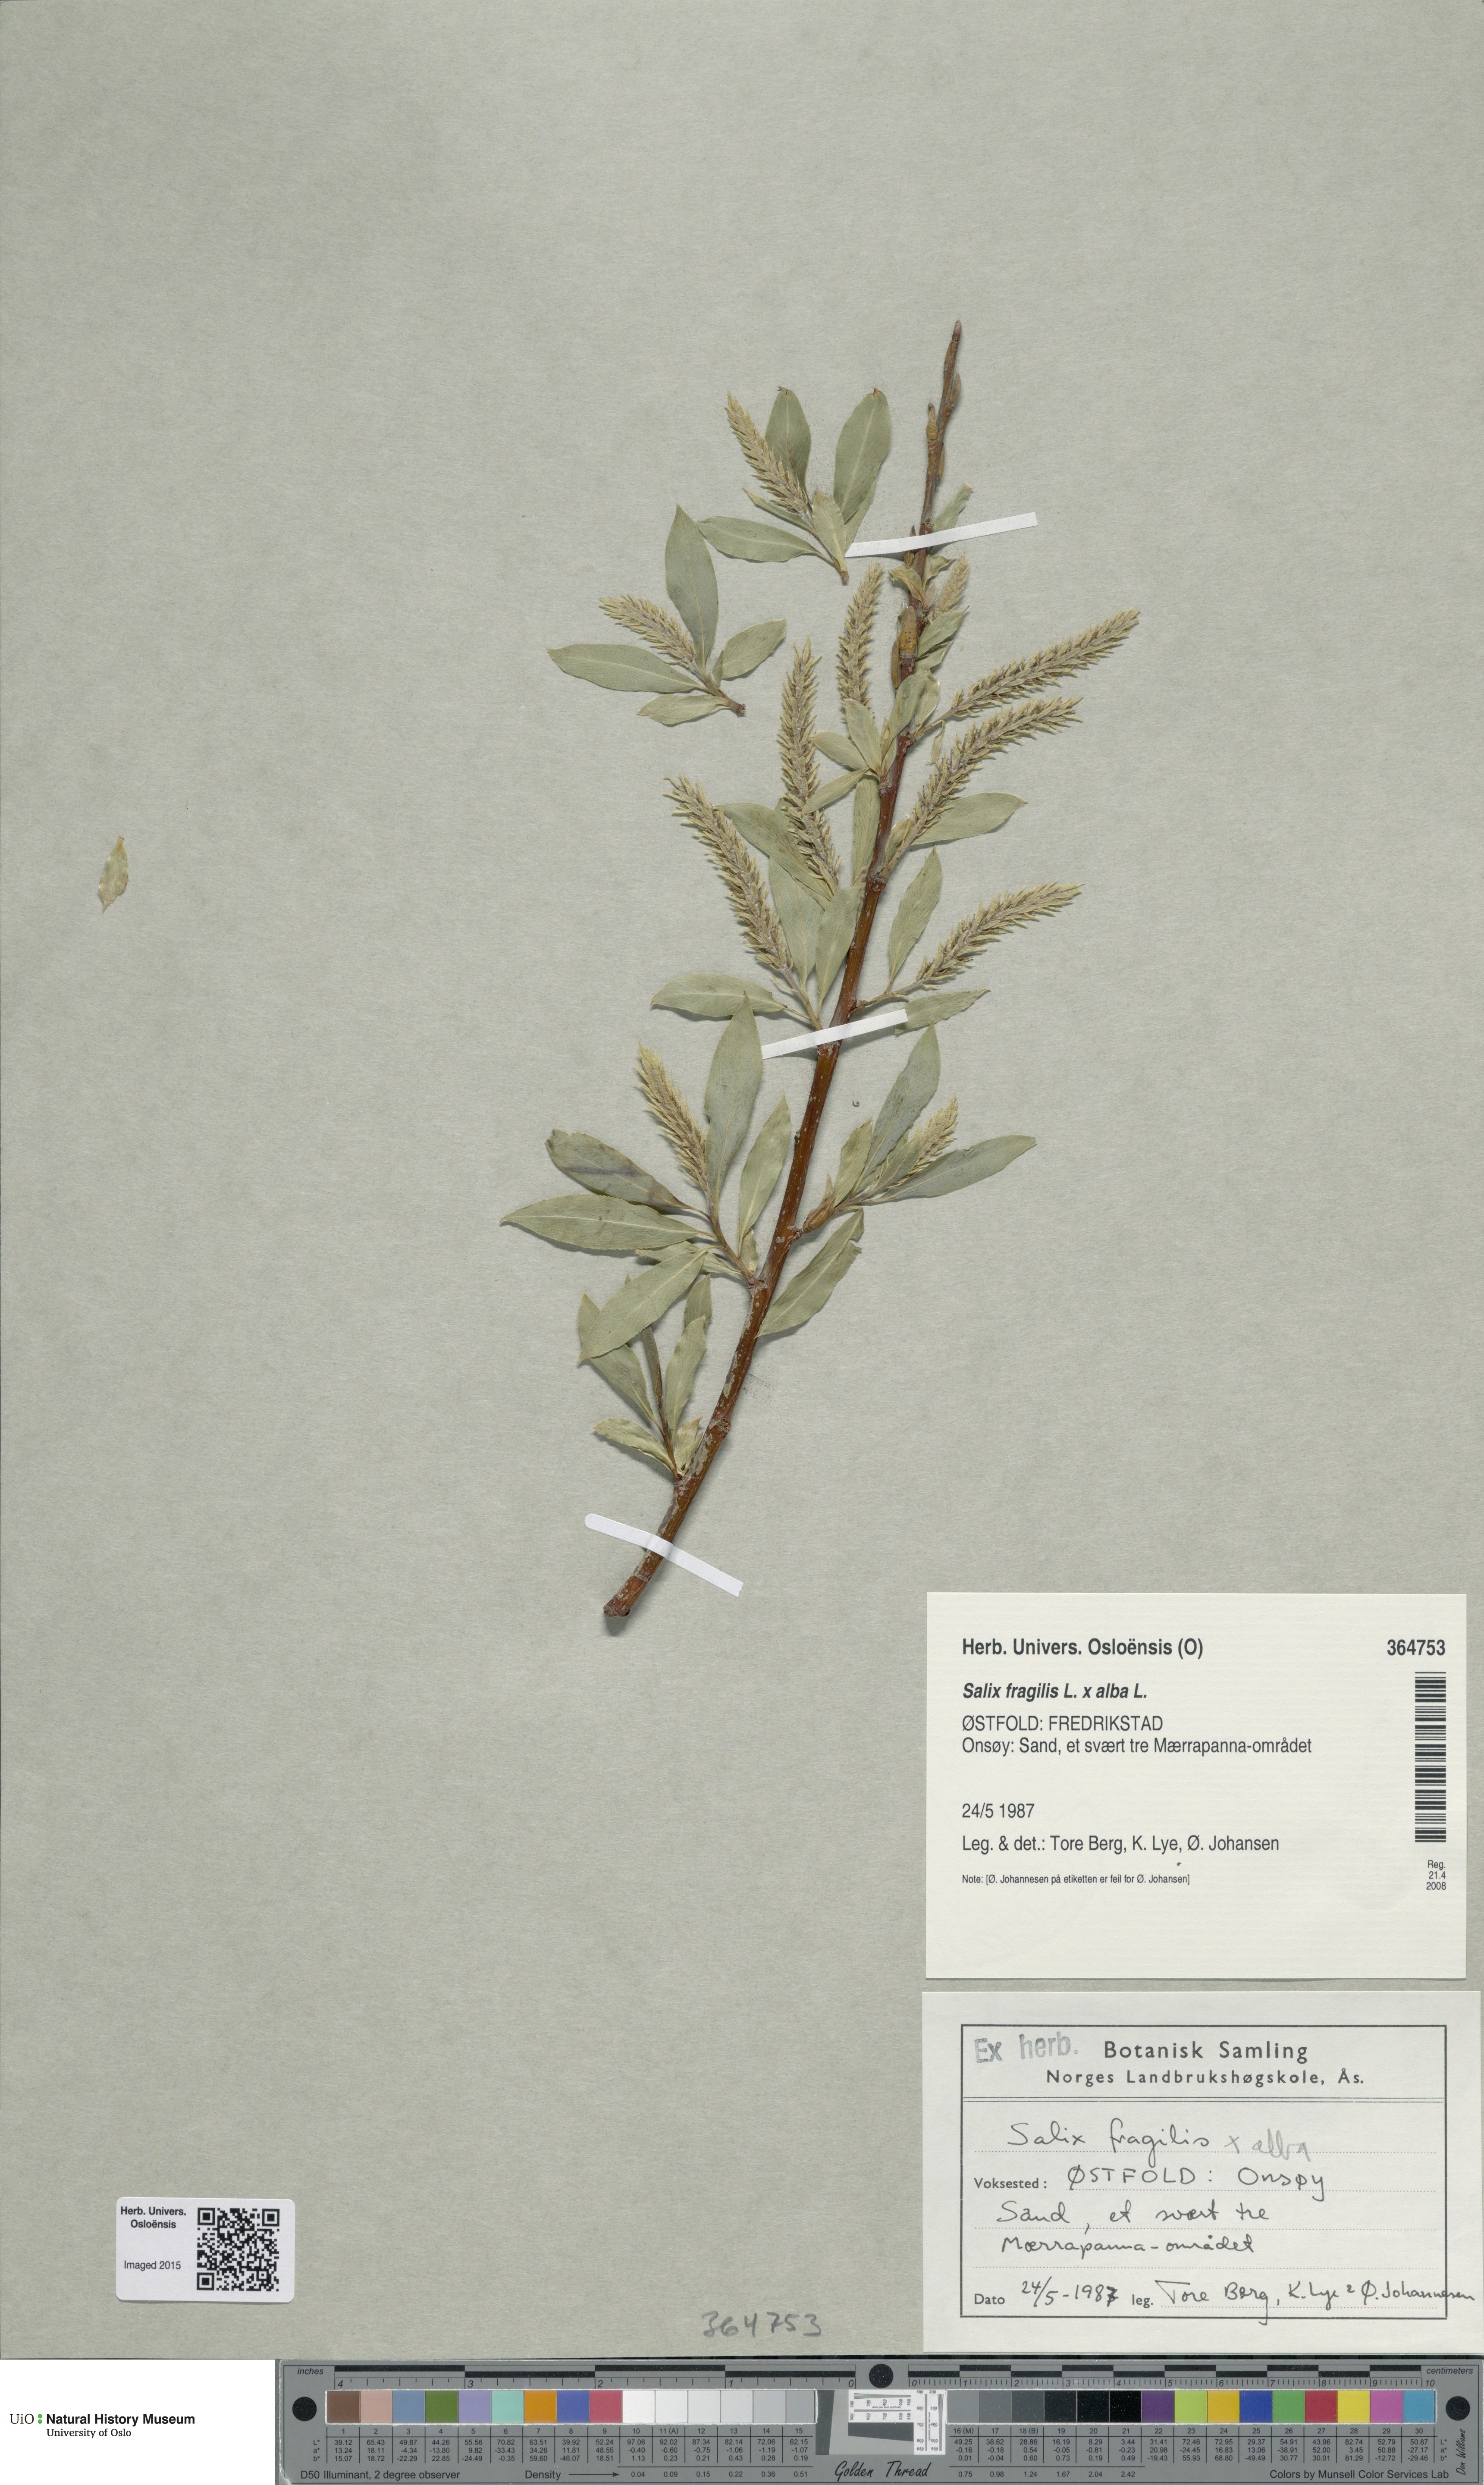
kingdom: Plantae
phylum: Tracheophyta
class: Magnoliopsida
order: Malpighiales
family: Salicaceae
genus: Salix
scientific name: Salix
